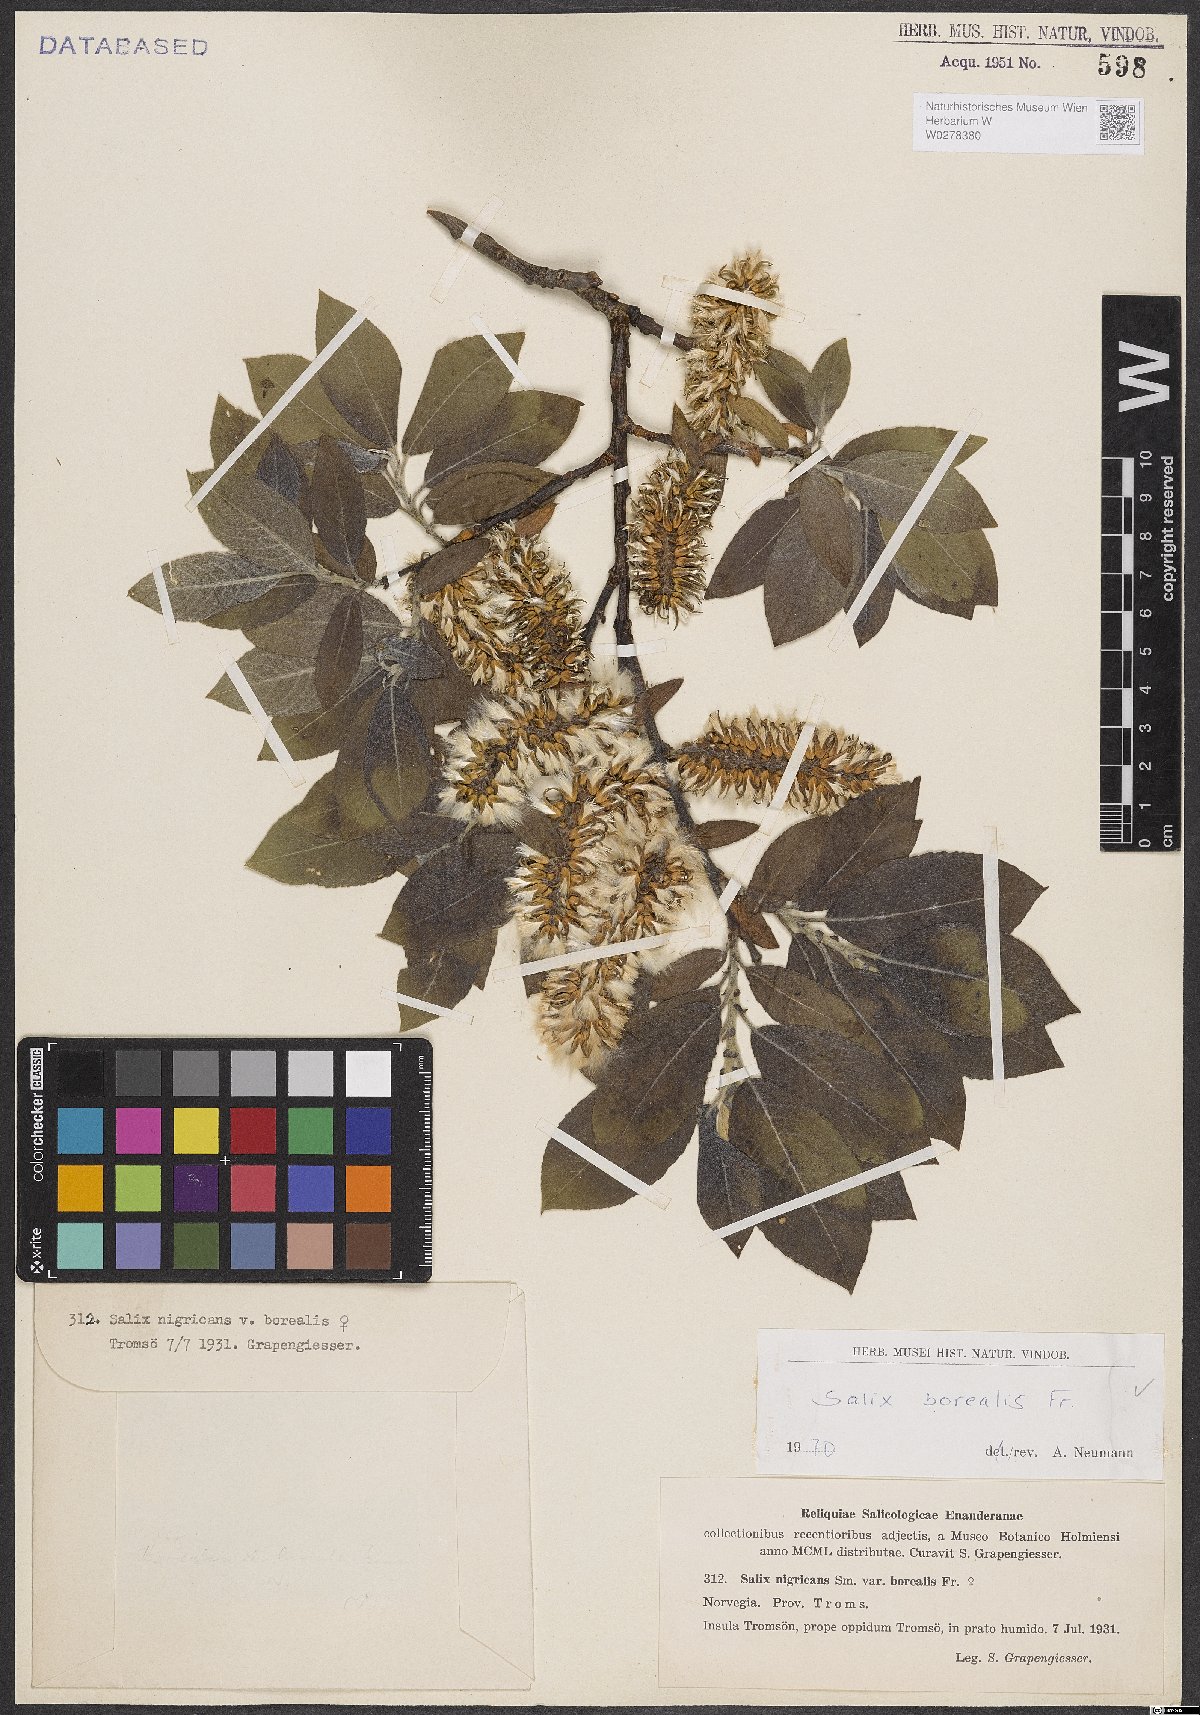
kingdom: Plantae
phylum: Tracheophyta
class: Magnoliopsida
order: Malpighiales
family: Salicaceae
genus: Salix
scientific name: Salix myrsinifolia
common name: Dark-leaved willow
